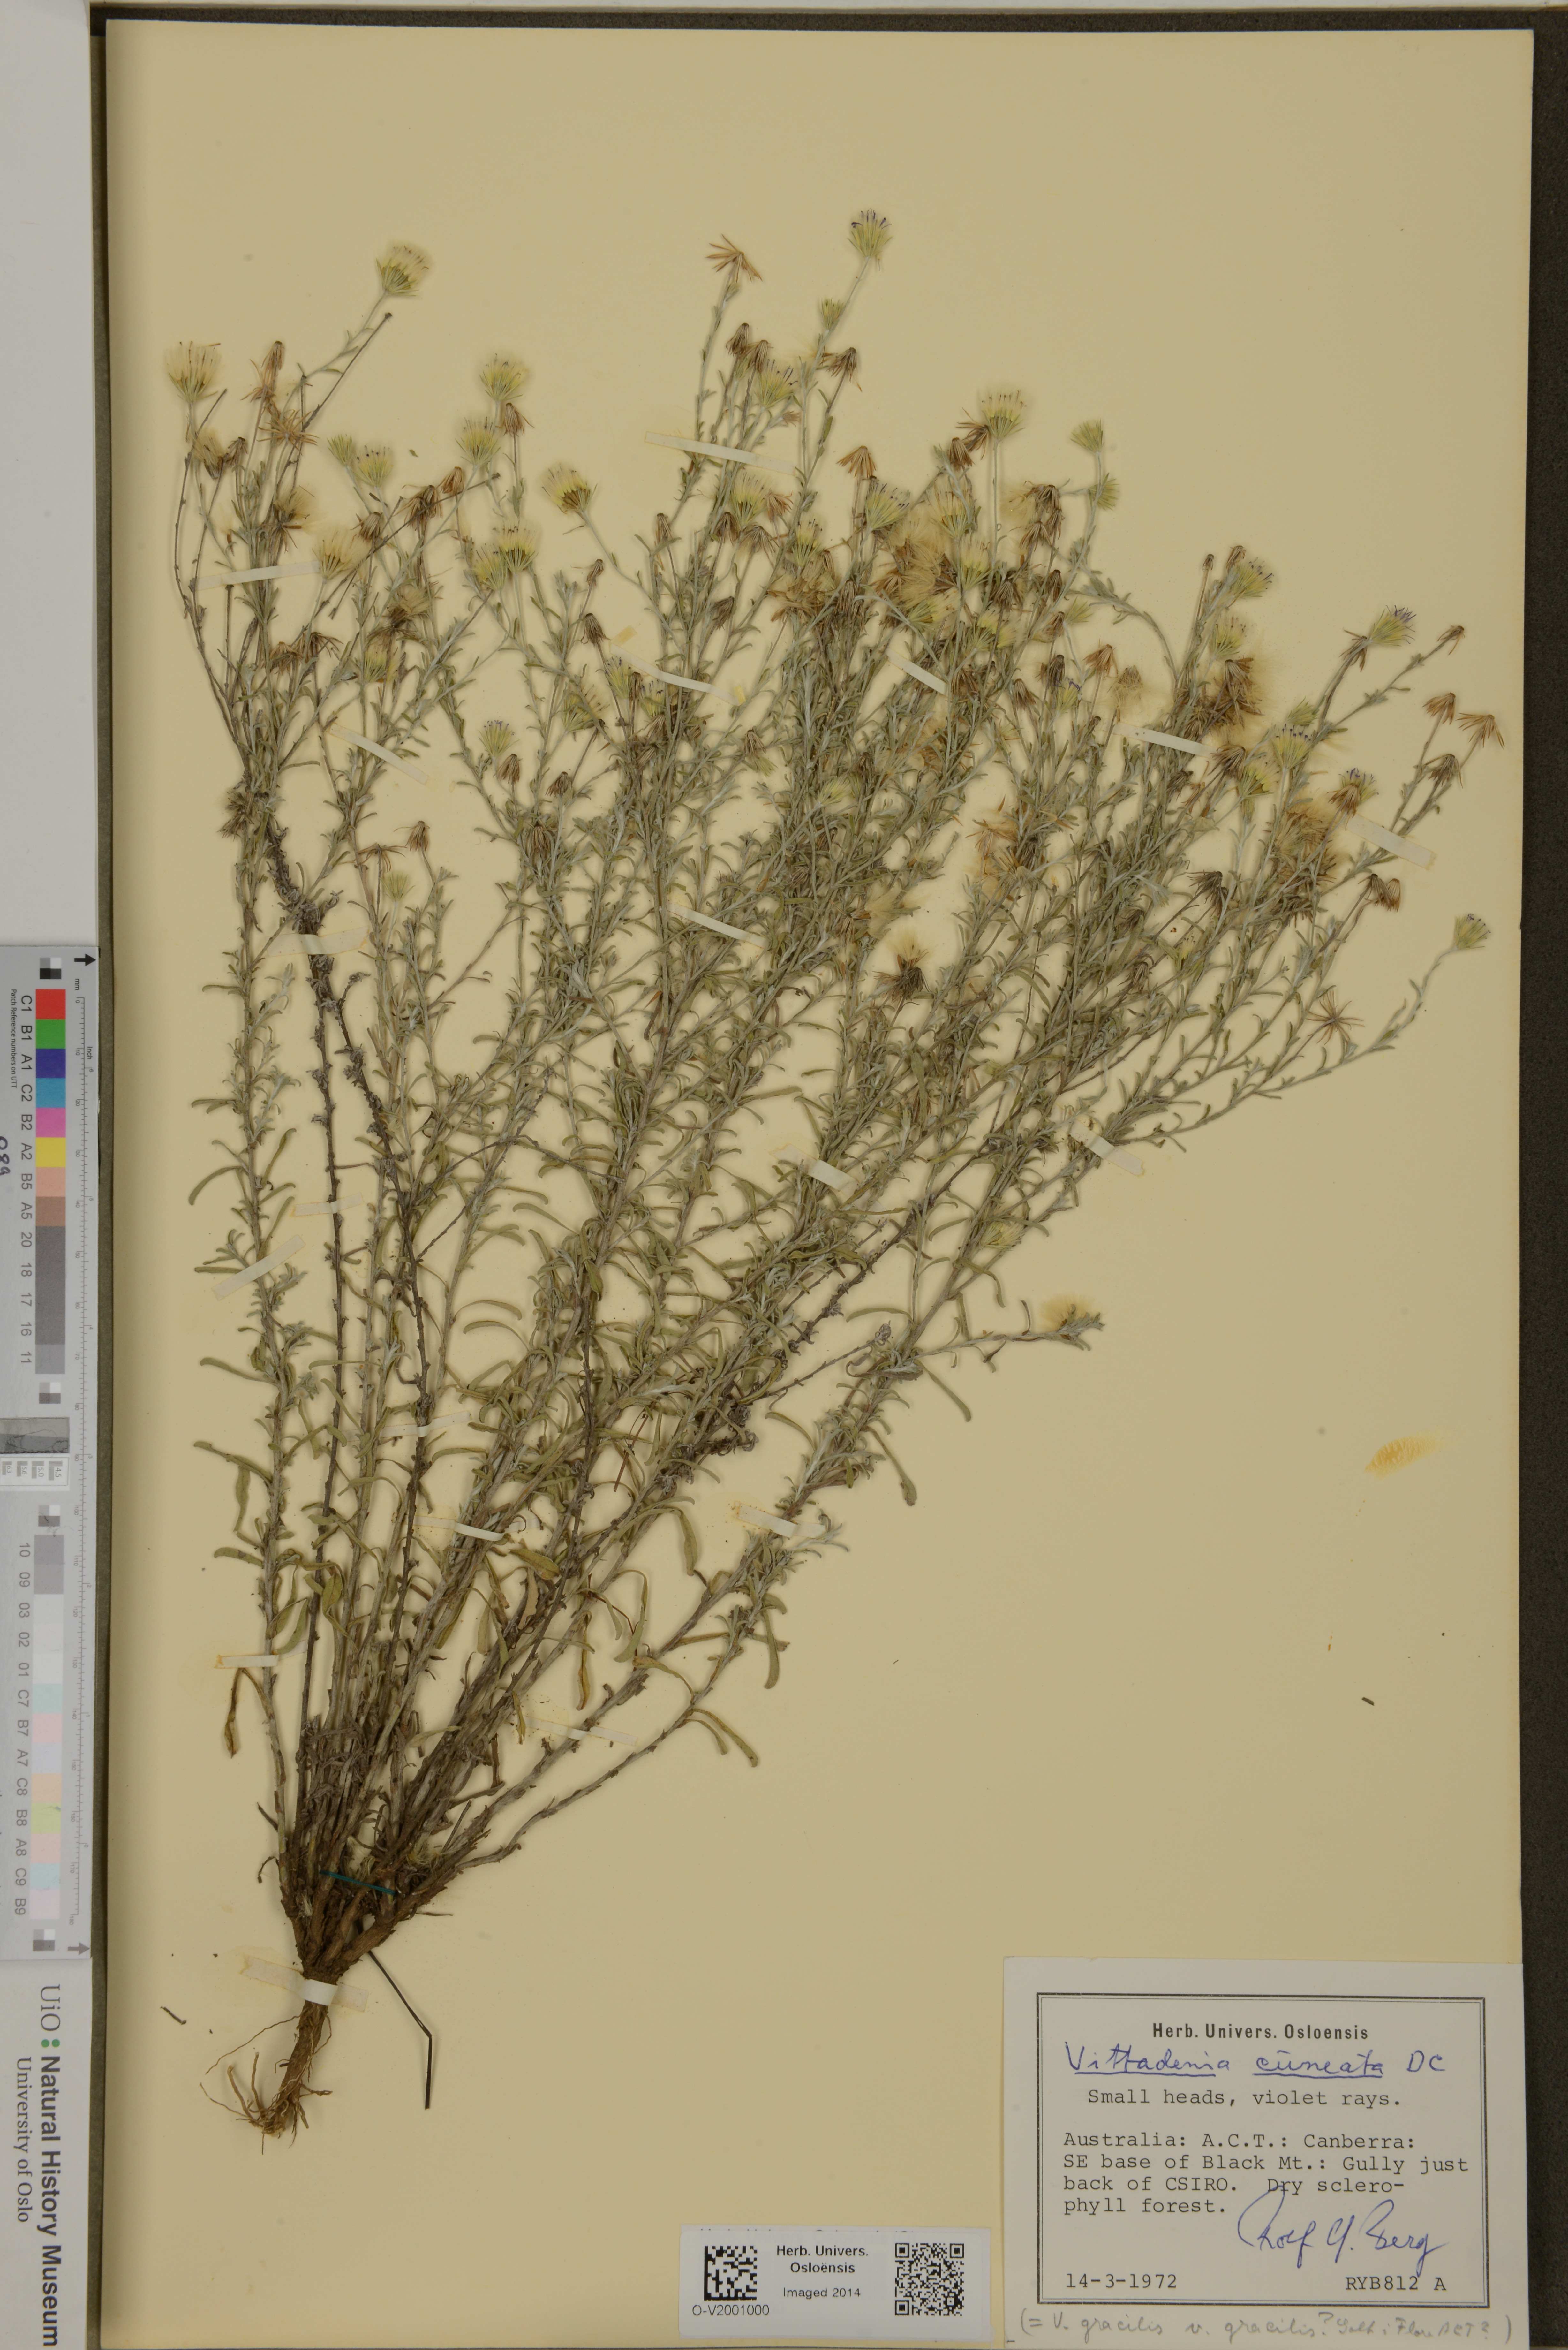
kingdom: Plantae
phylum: Tracheophyta
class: Magnoliopsida
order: Asterales
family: Asteraceae
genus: Vittadinia
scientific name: Vittadinia cuneata
